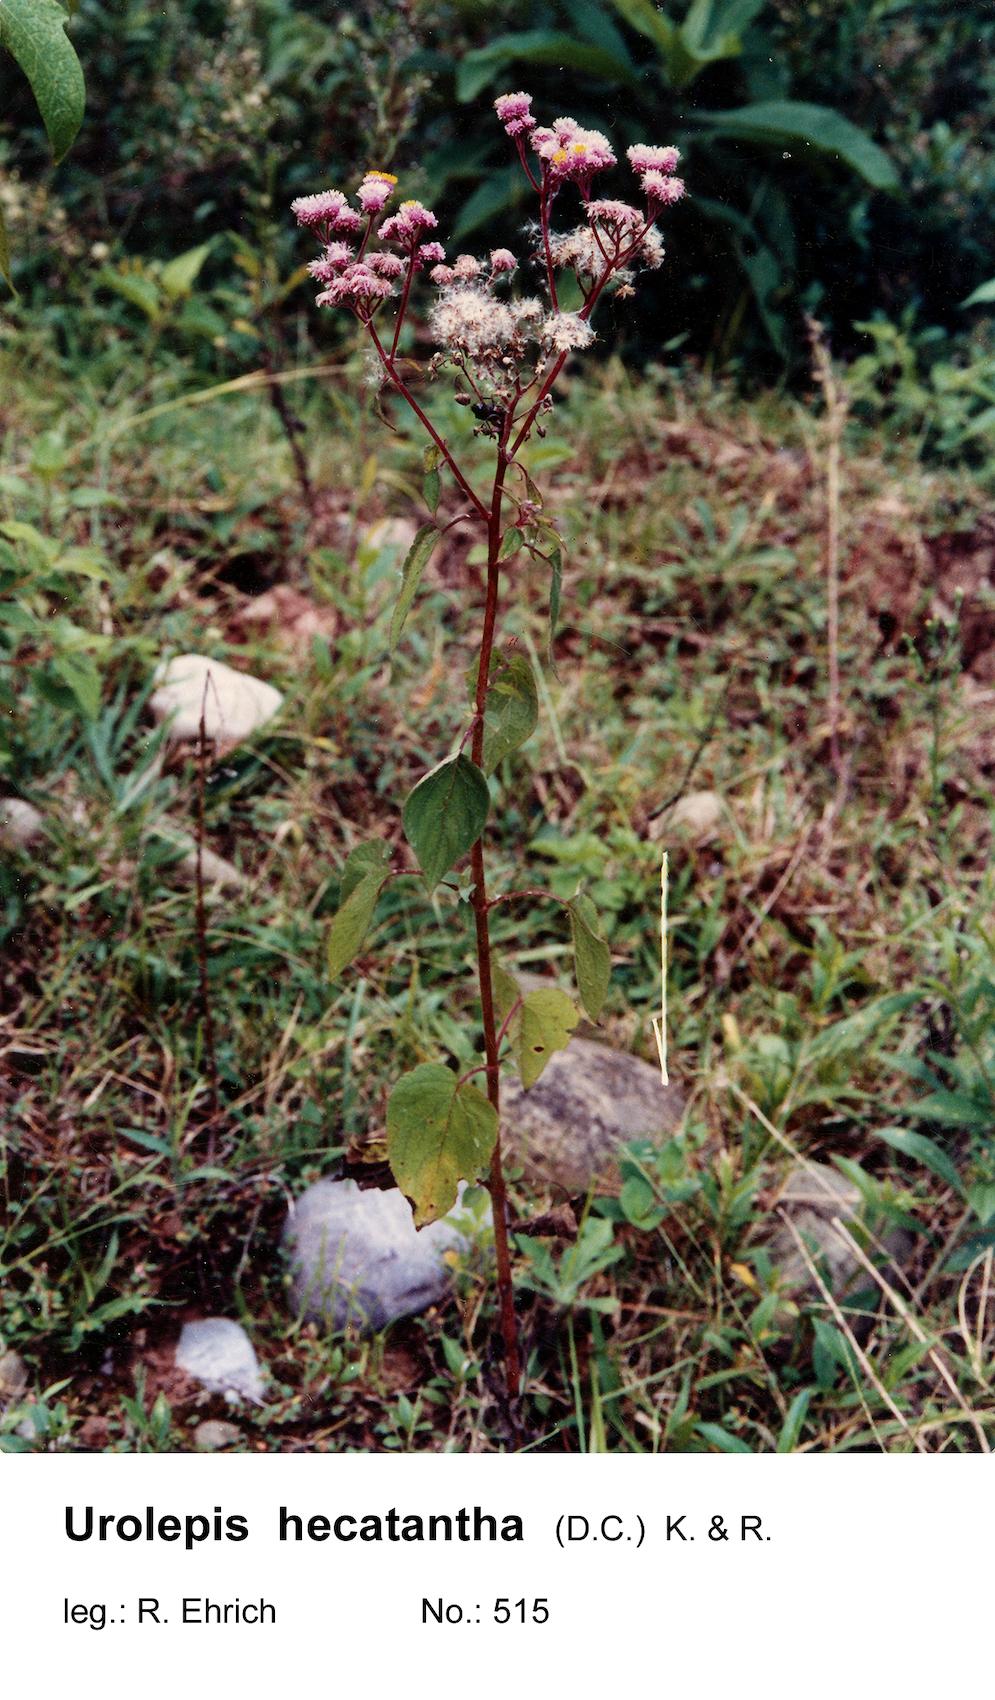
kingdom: Plantae
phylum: Tracheophyta
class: Magnoliopsida
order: Asterales
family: Asteraceae
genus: Urolepis
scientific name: Urolepis hecatantha
